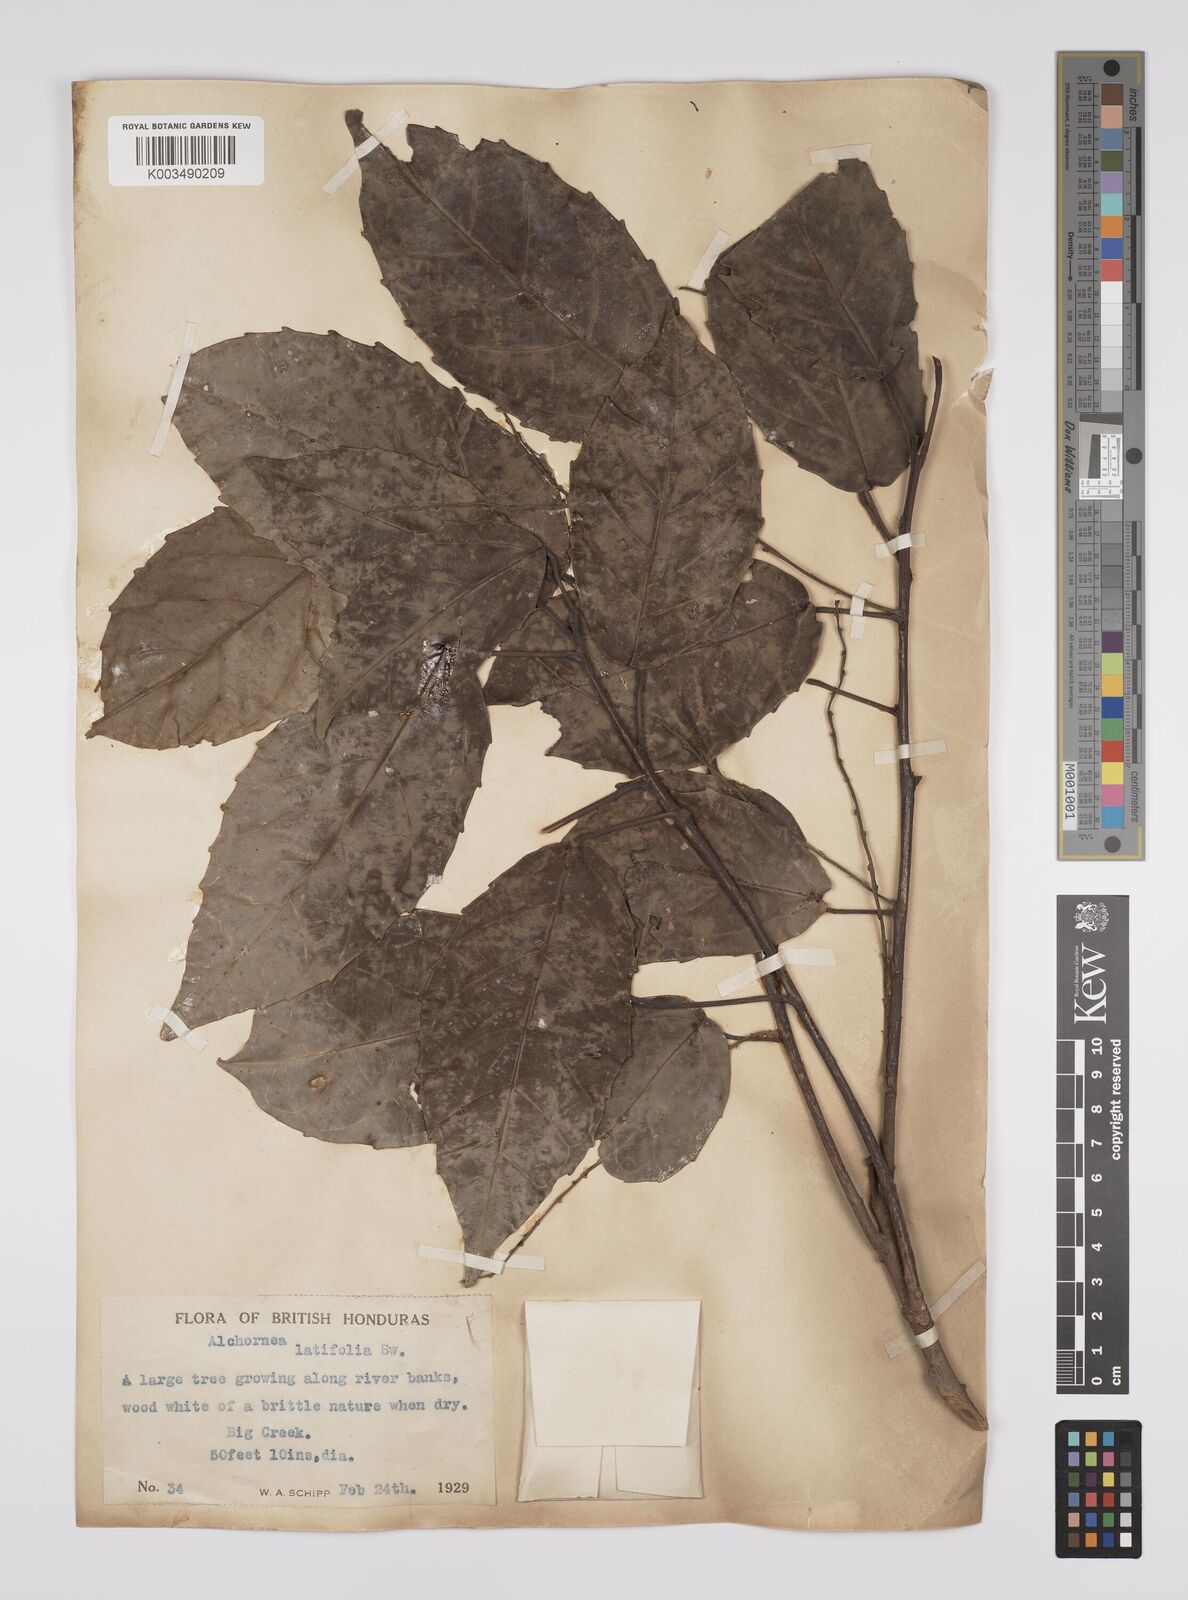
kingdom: Plantae
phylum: Tracheophyta
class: Magnoliopsida
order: Malpighiales
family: Euphorbiaceae
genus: Alchornea
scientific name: Alchornea latifolia
